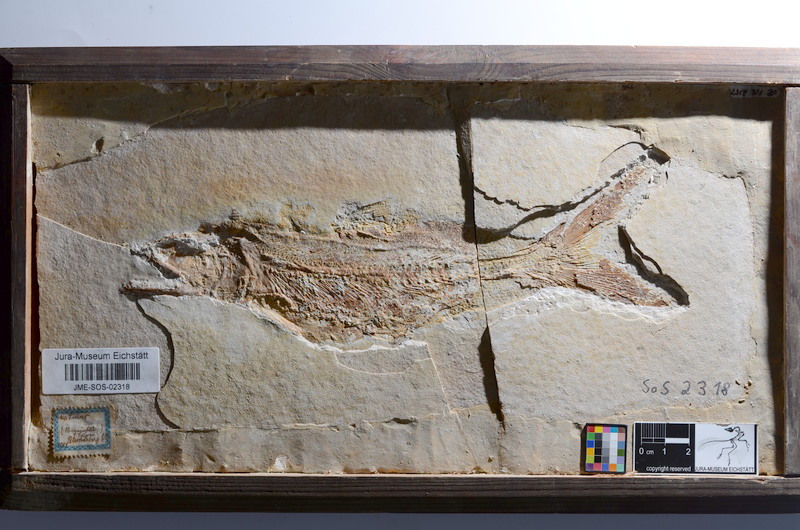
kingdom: Animalia
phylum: Chordata
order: Amiiformes
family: Caturidae
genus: Caturus
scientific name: Caturus furcatus
